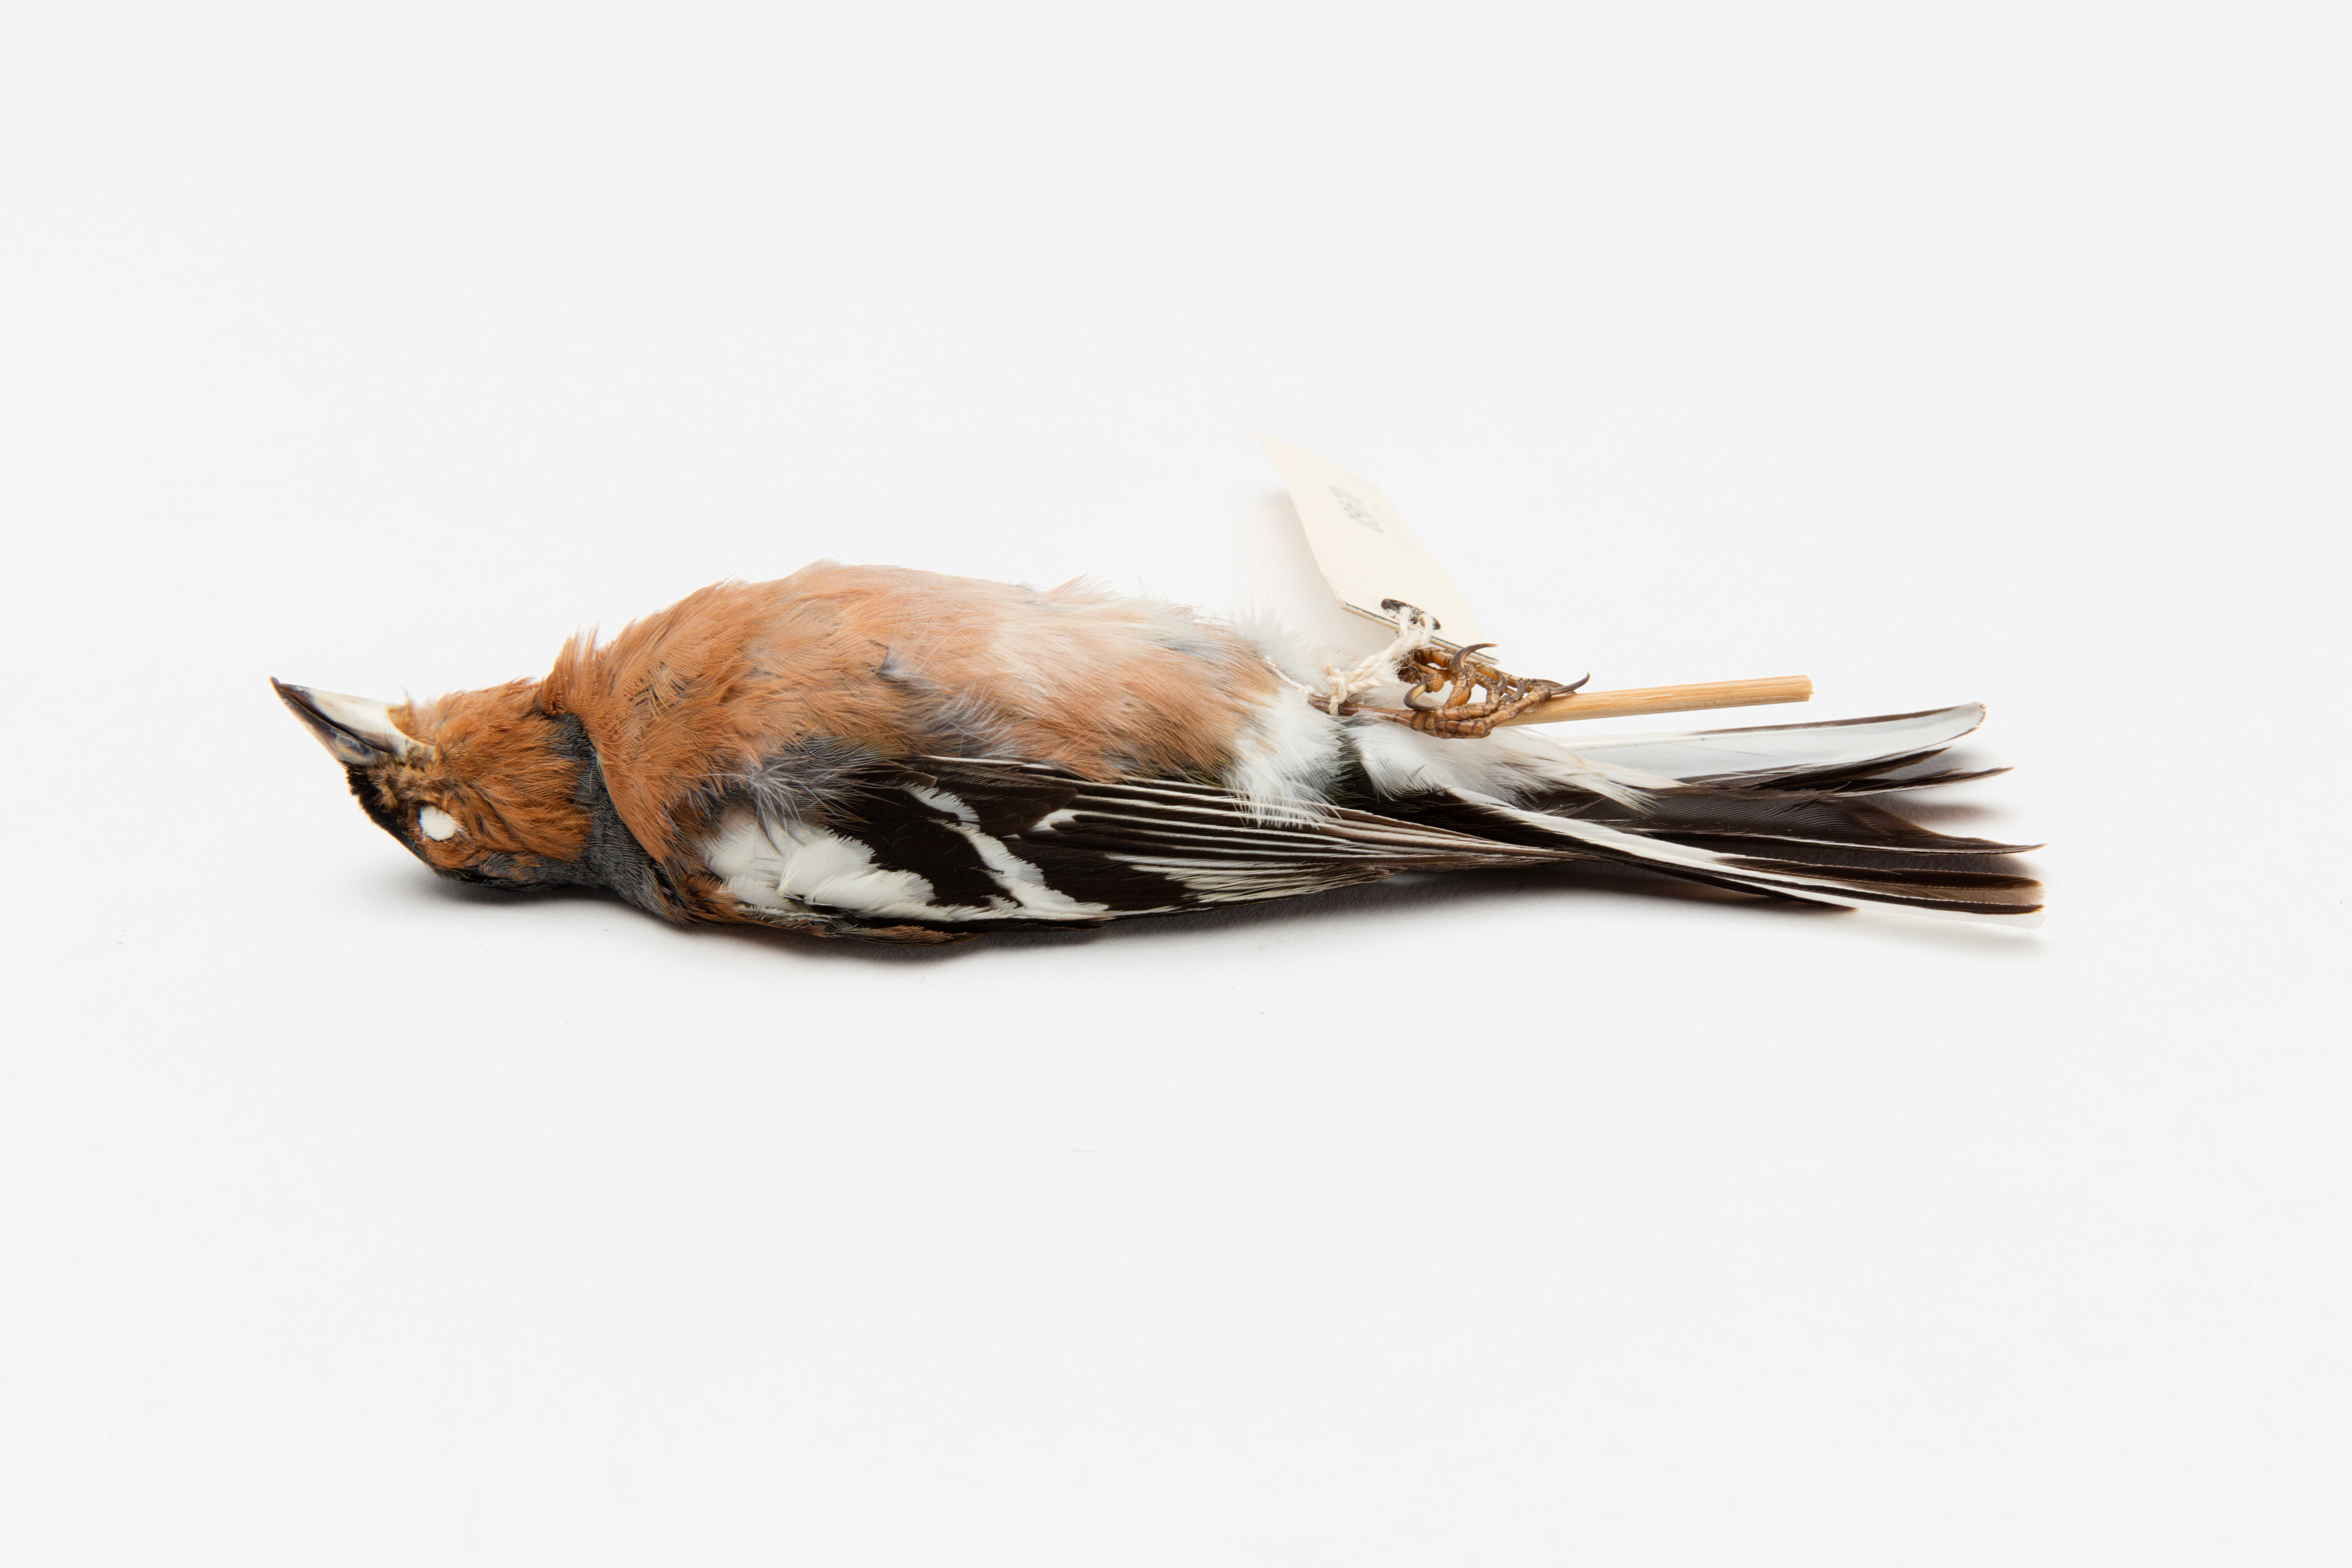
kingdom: Animalia
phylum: Chordata
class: Aves
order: Passeriformes
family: Fringillidae
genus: Fringilla
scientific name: Fringilla coelebs
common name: Common chaffinch
